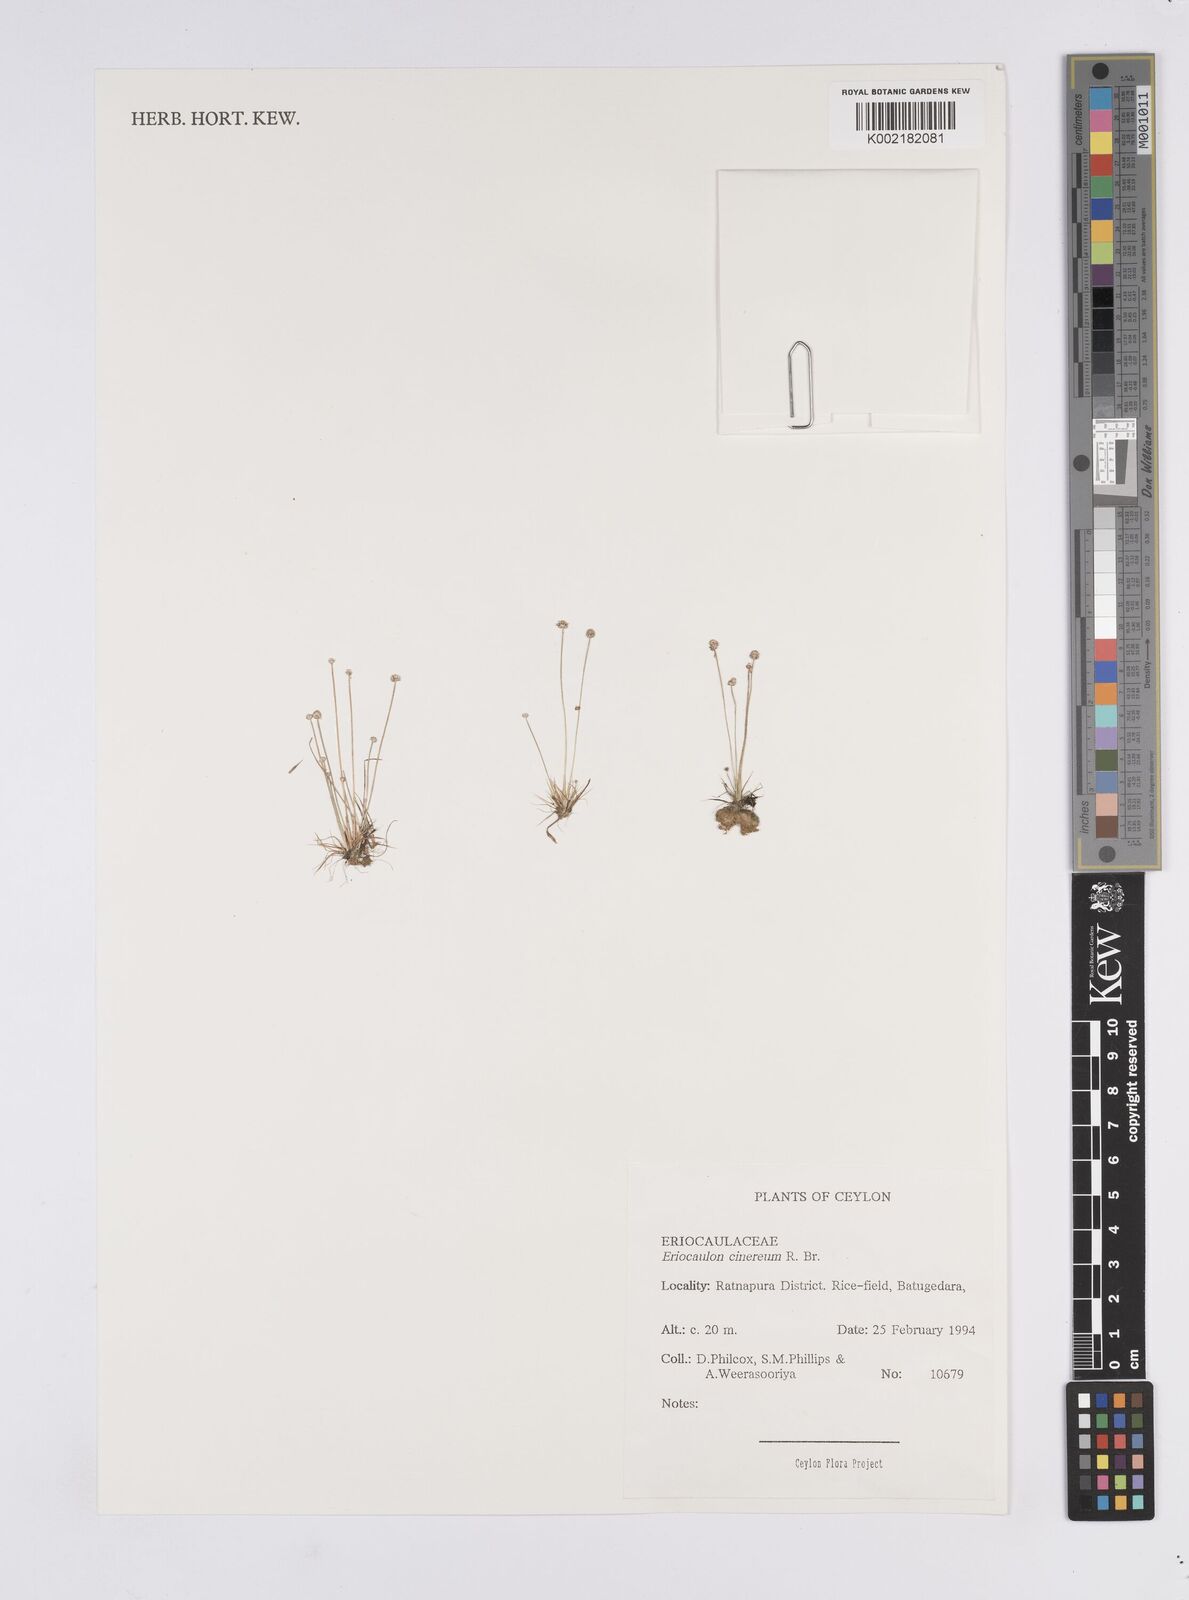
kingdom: Plantae
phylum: Tracheophyta
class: Liliopsida
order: Poales
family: Eriocaulaceae
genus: Eriocaulon
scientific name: Eriocaulon cinereum
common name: Ashy pipewort
